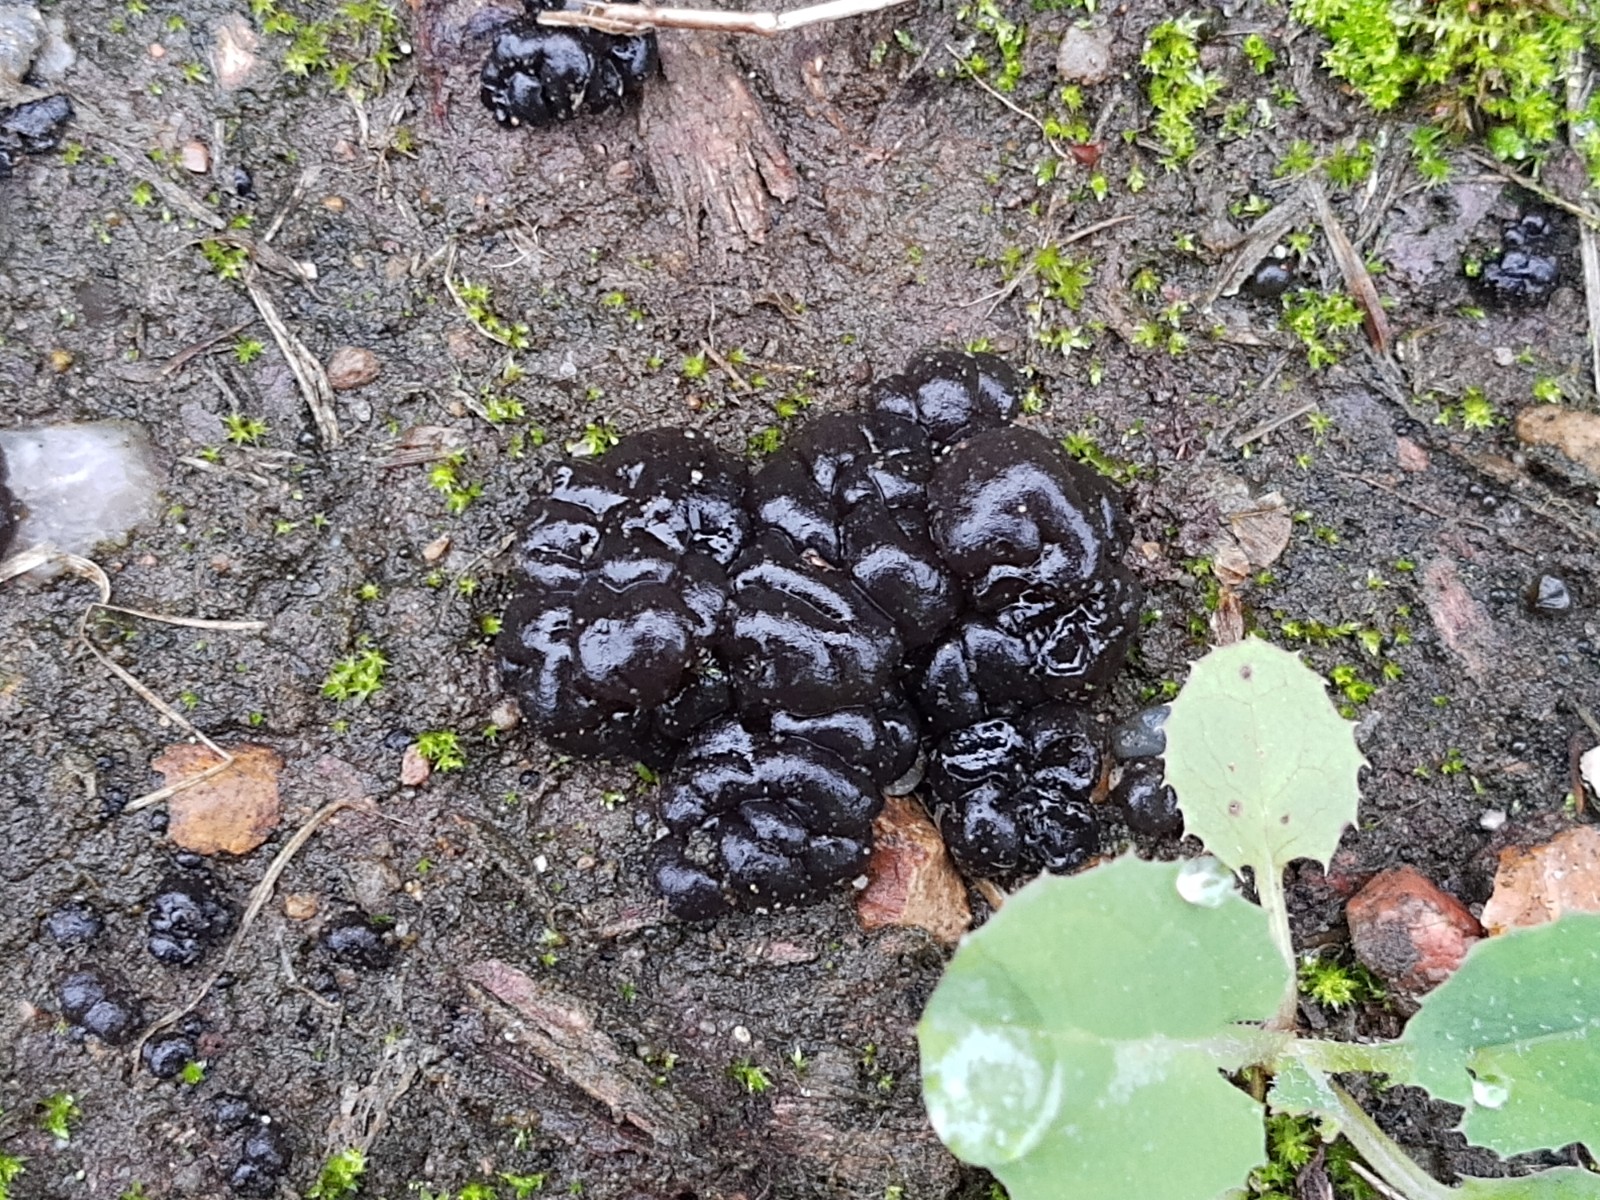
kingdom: Fungi
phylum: Basidiomycota
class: Agaricomycetes
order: Auriculariales
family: Auriculariaceae
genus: Exidia
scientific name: Exidia nigricans
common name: almindelig bævretop
